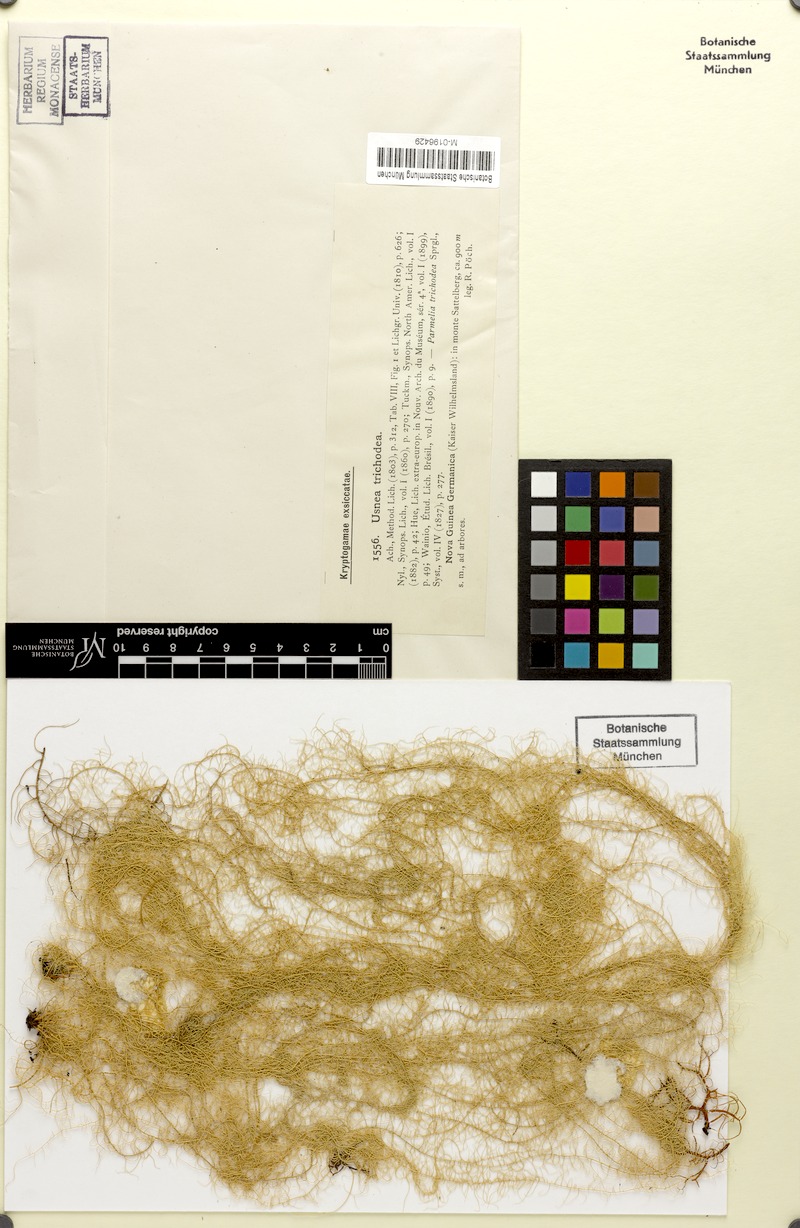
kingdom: Fungi
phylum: Ascomycota
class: Lecanoromycetes
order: Lecanorales
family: Parmeliaceae
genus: Usnea
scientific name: Usnea trichodea
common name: Bony beard lichen
